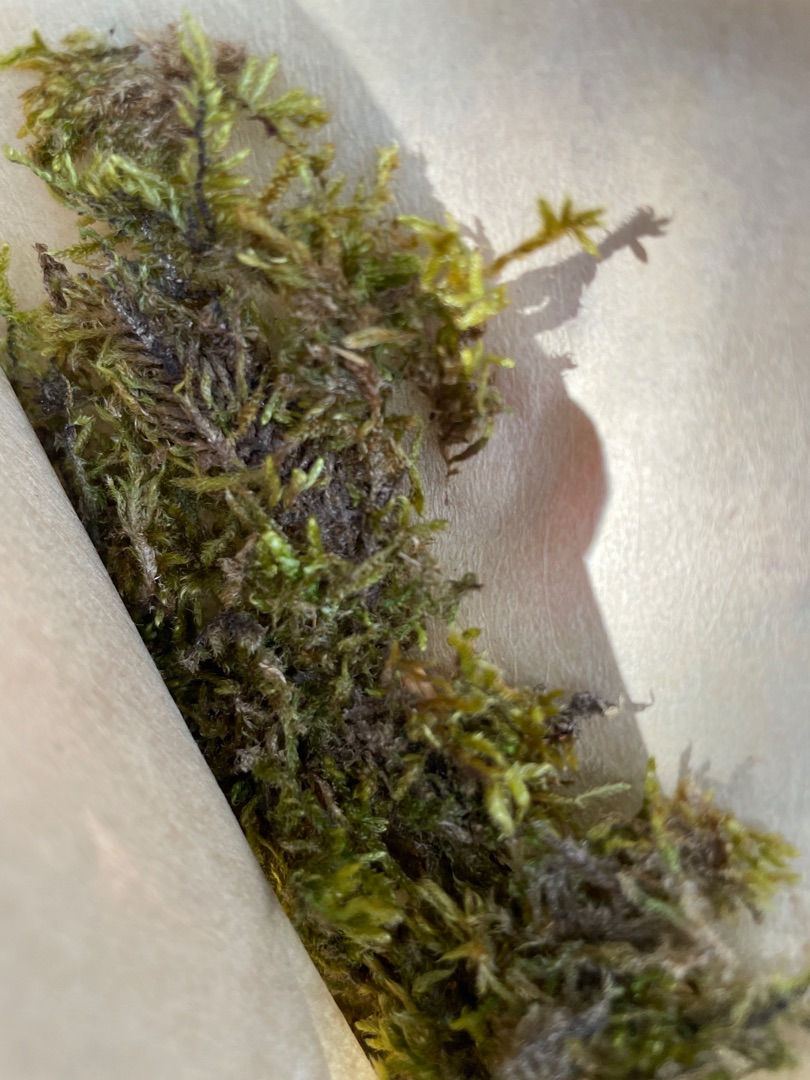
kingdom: Plantae
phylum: Bryophyta
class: Bryopsida
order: Hypnales
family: Hypnaceae
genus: Hypnum
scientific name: Hypnum cupressiforme
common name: Almindelig cypresmos
